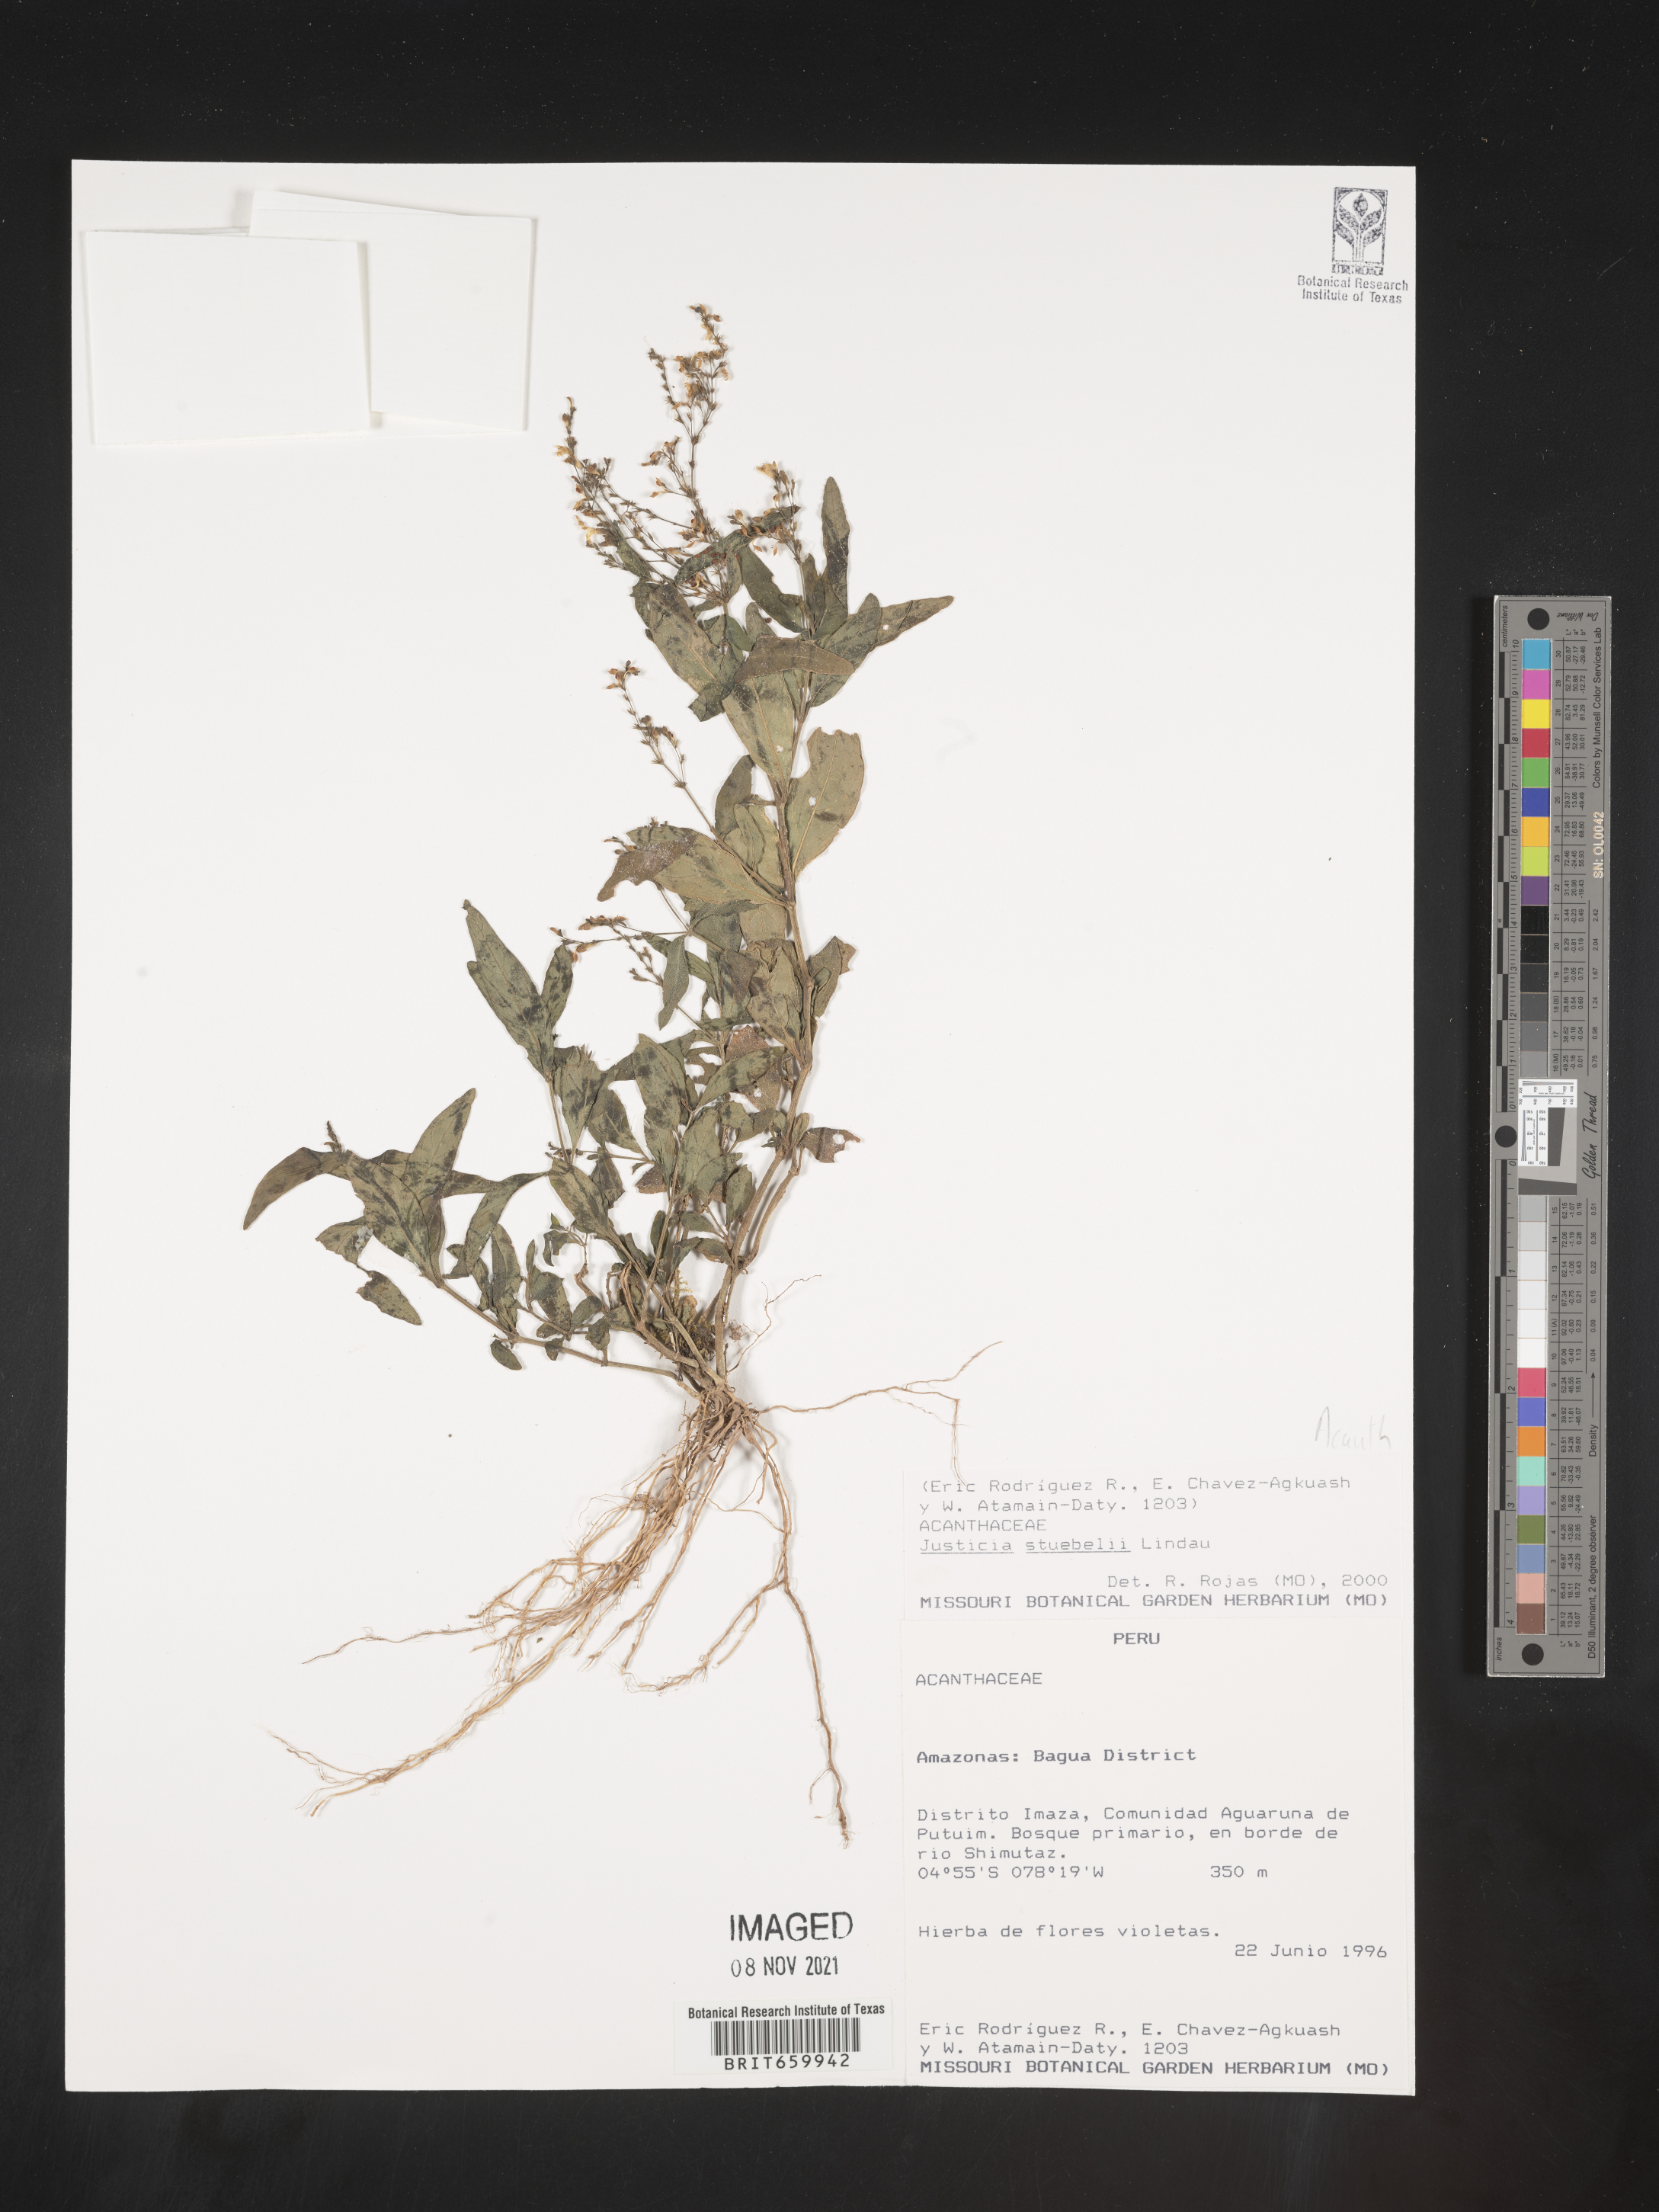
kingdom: Plantae
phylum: Tracheophyta
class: Magnoliopsida
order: Lamiales
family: Acanthaceae
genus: Dianthera
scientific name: Dianthera pectoralis
